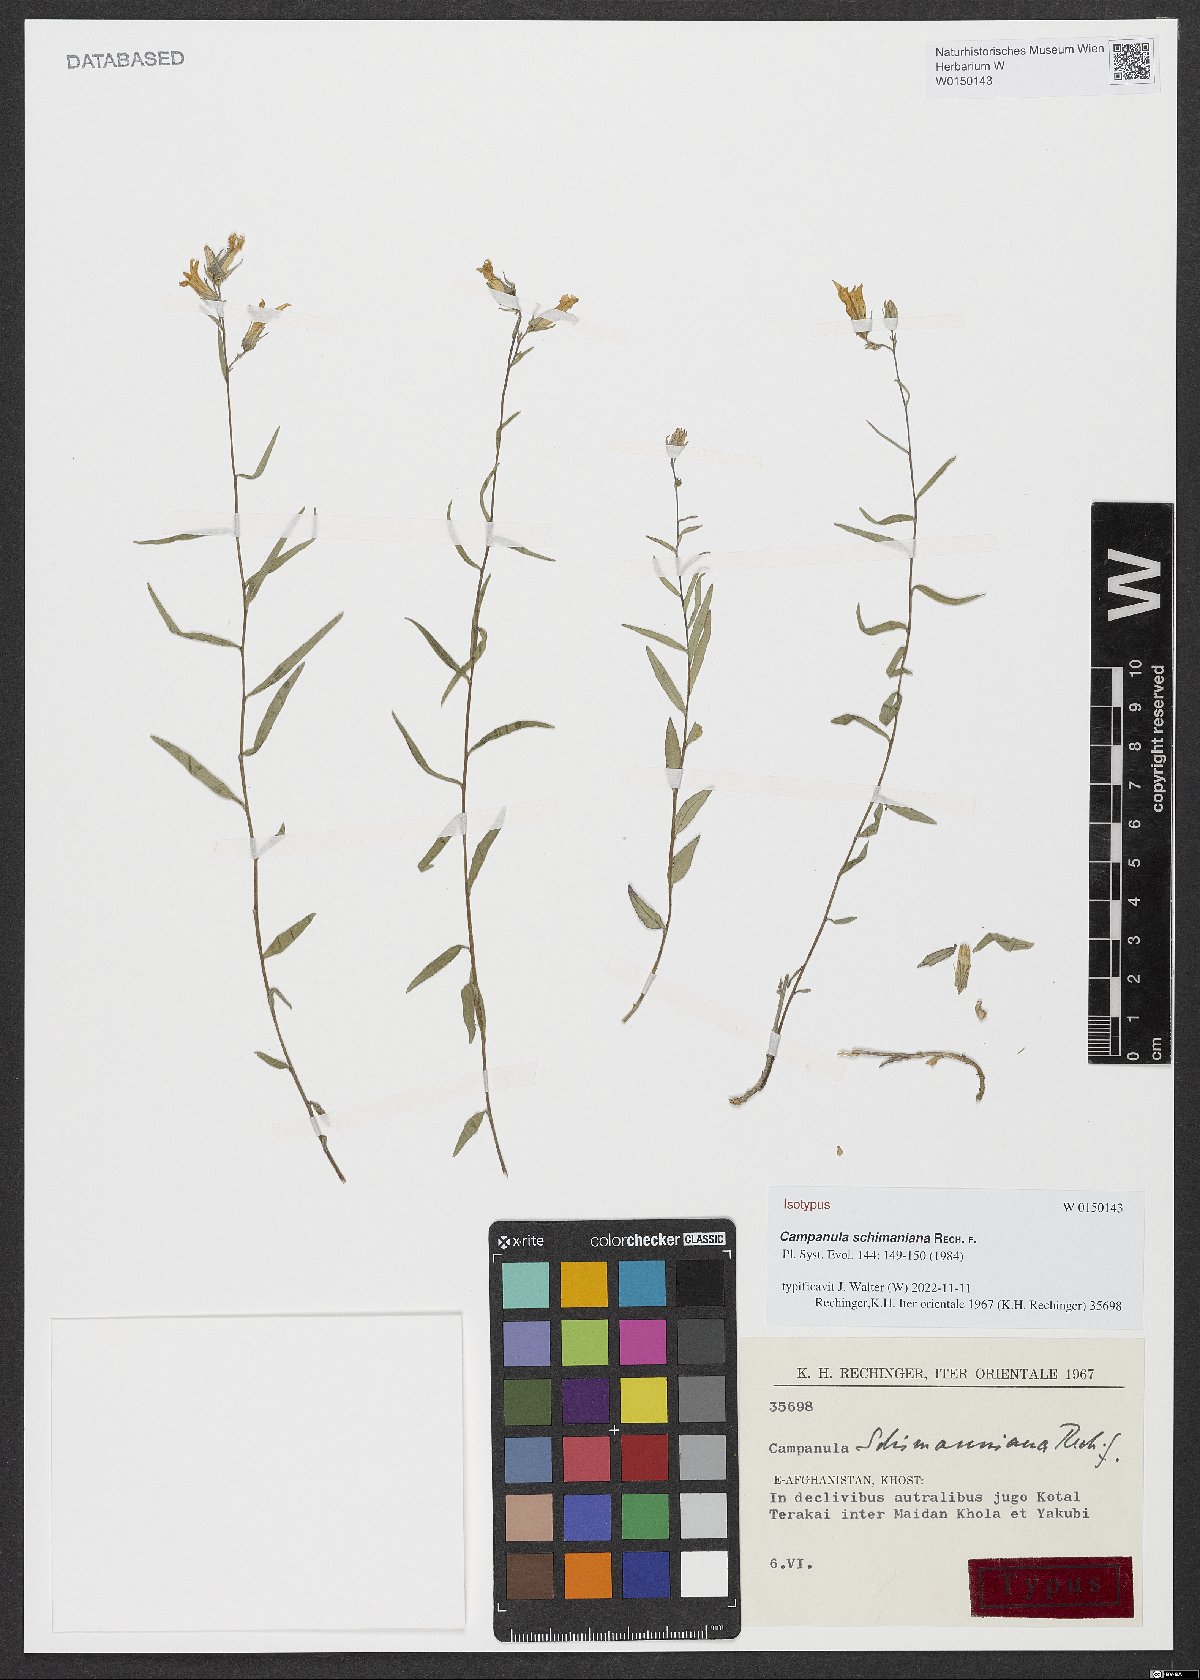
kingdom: Plantae
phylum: Tracheophyta
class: Magnoliopsida
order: Asterales
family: Campanulaceae
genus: Campanula
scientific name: Campanula schimaniana
